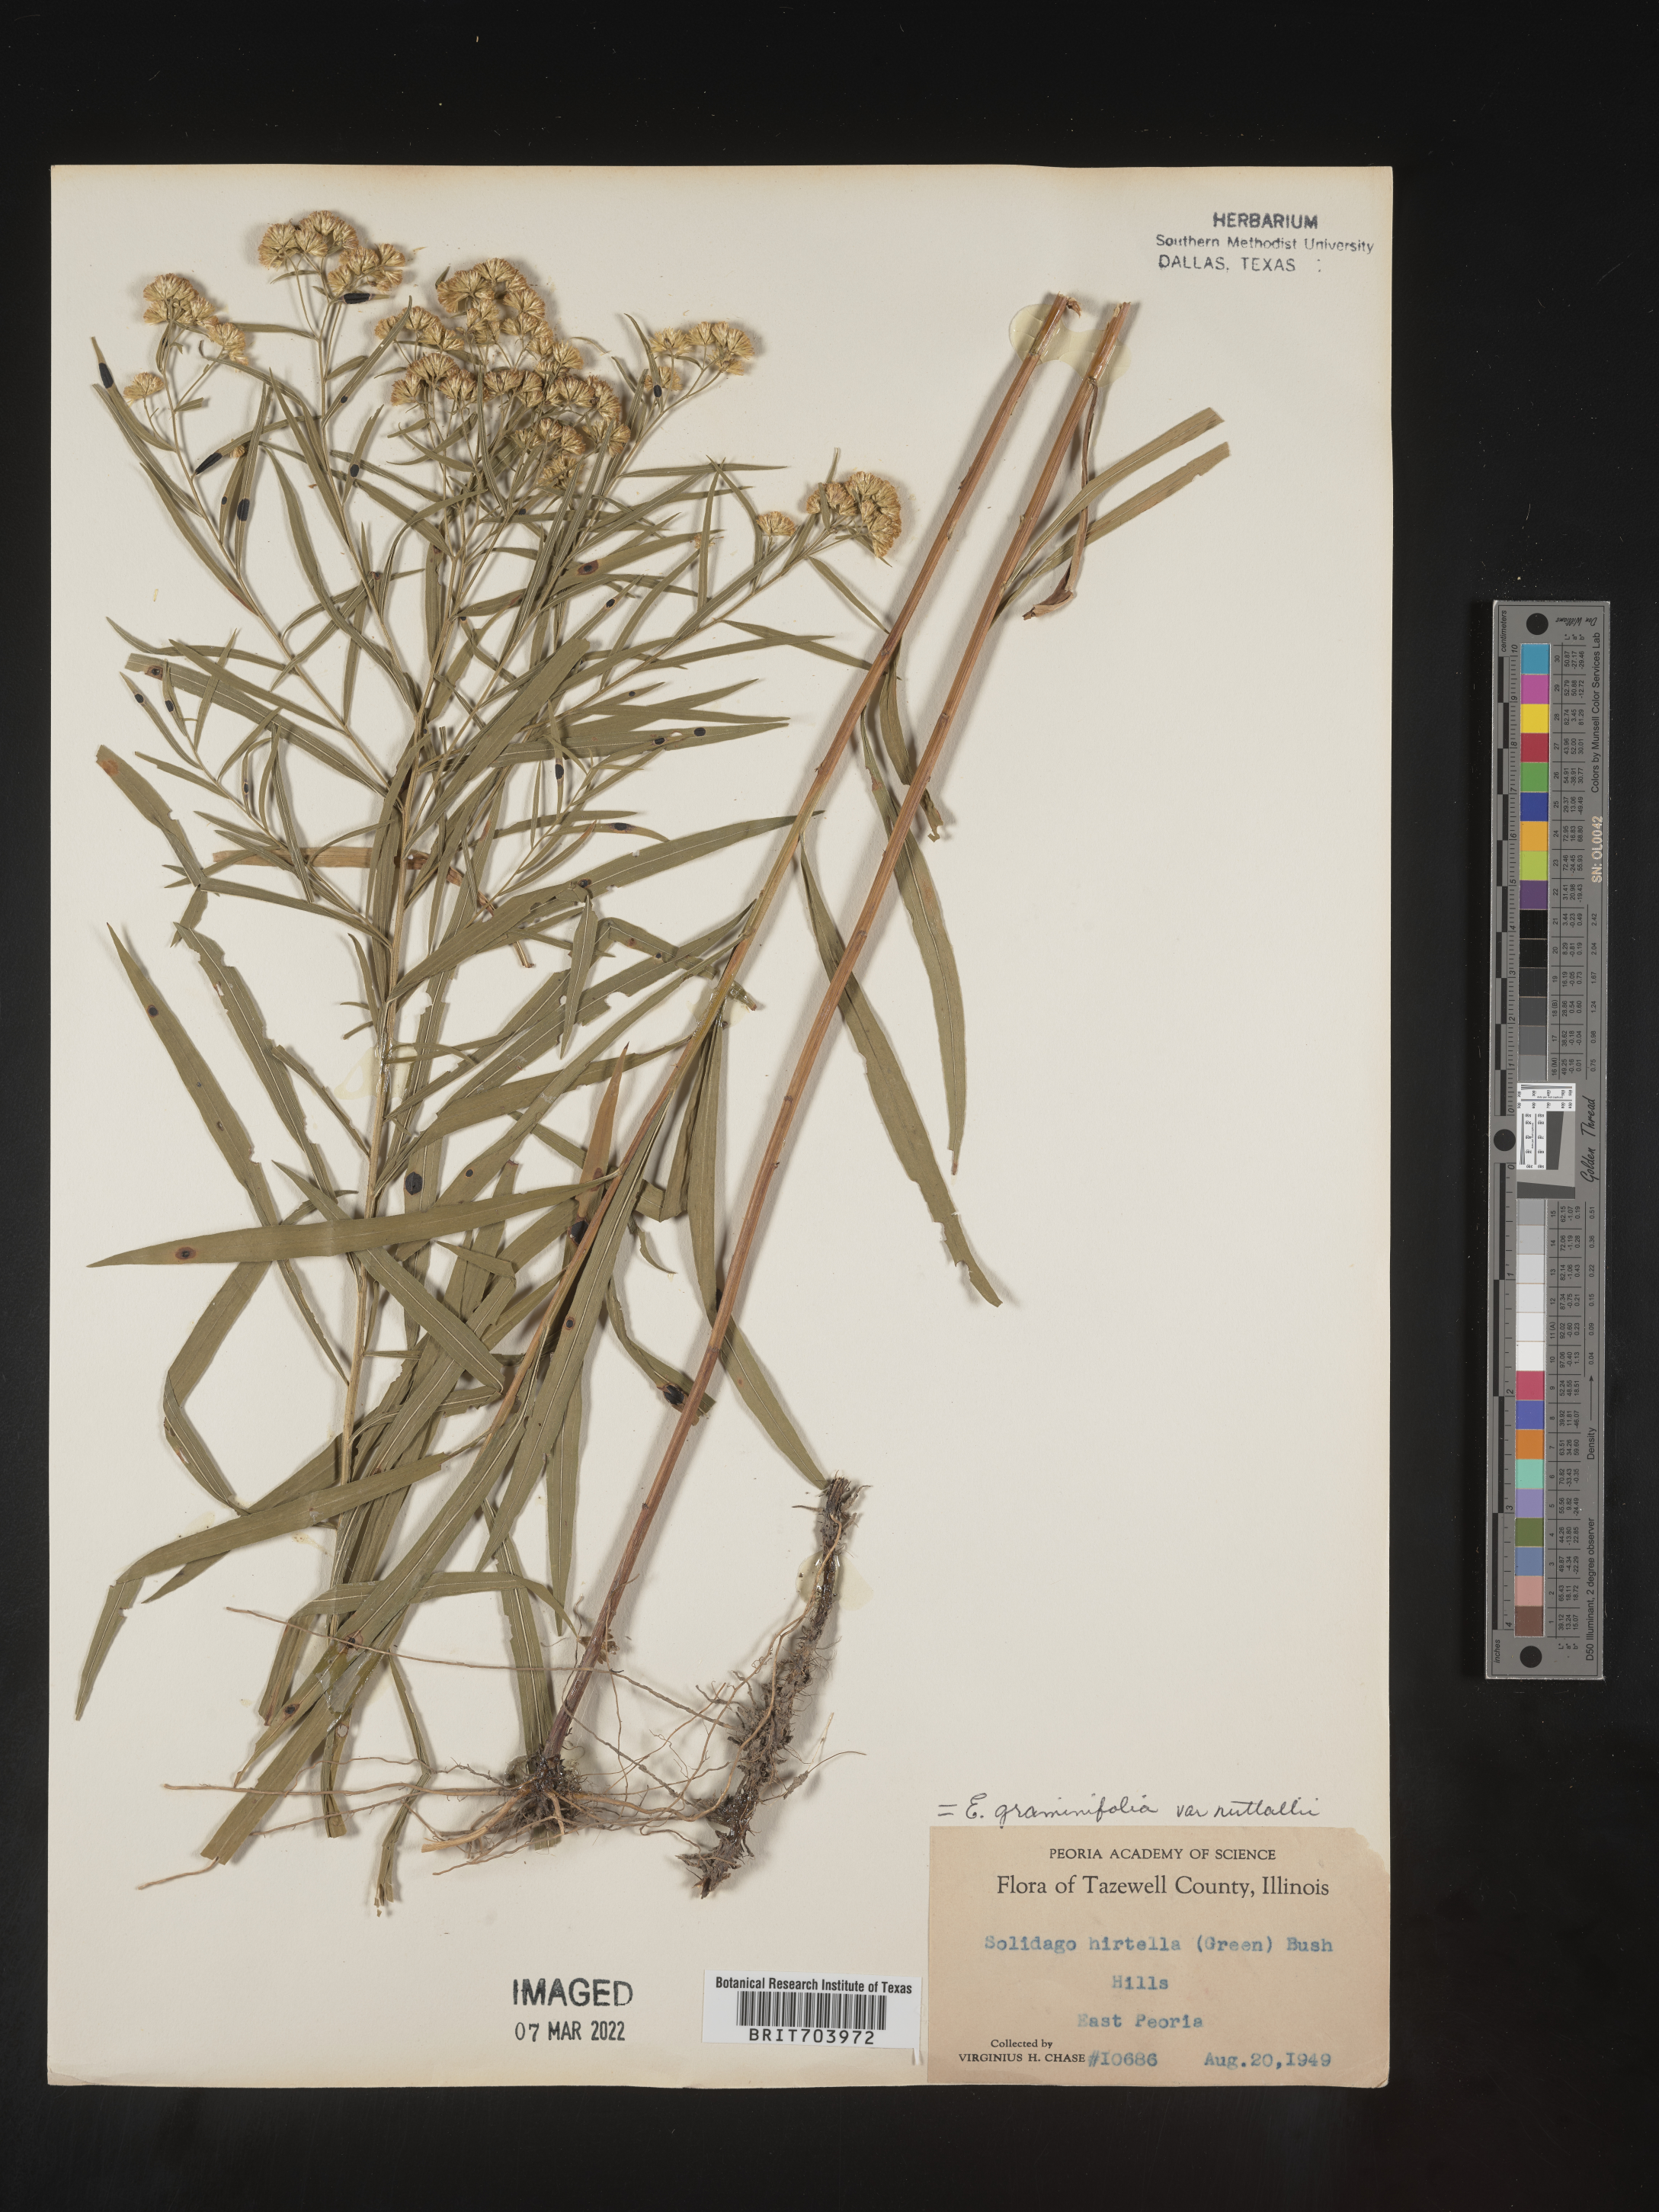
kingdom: Plantae
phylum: Tracheophyta
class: Magnoliopsida
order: Asterales
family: Asteraceae
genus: Euthamia
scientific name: Euthamia graminifolia
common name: Common goldentop
